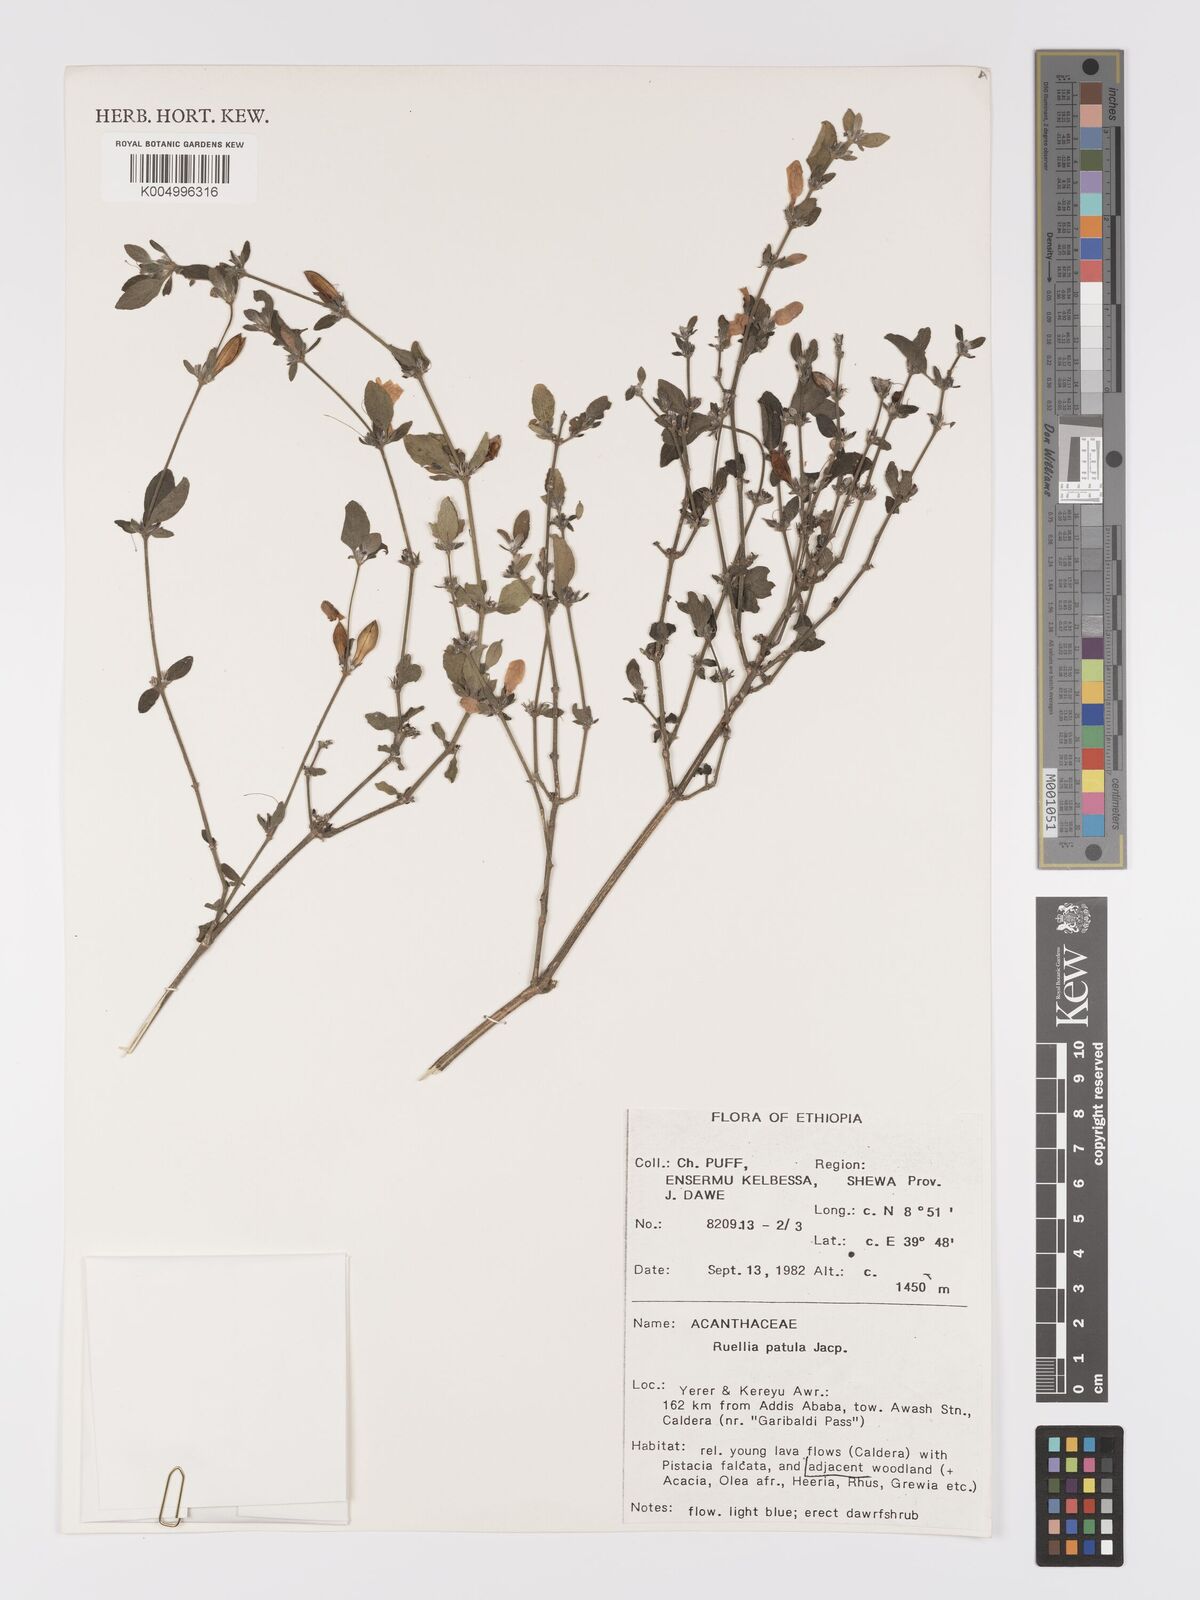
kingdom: Plantae
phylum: Tracheophyta
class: Magnoliopsida
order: Lamiales
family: Acanthaceae
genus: Ruellia
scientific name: Ruellia patula
